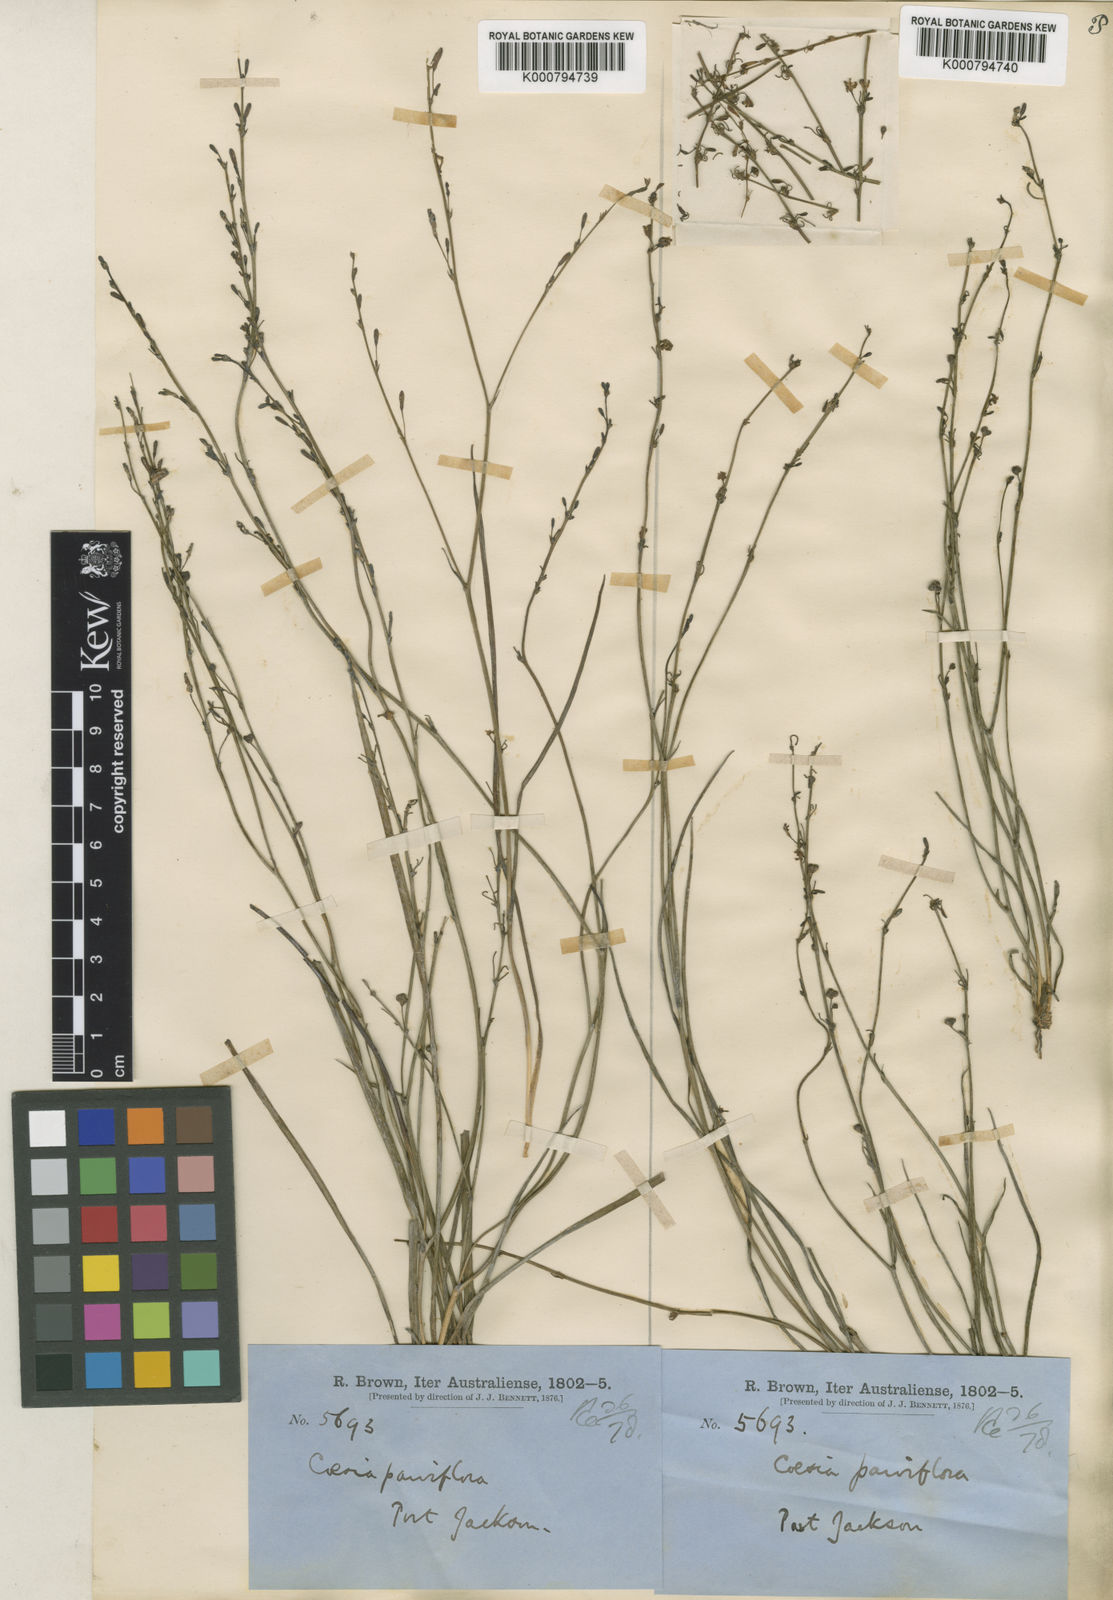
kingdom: Plantae
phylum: Tracheophyta
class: Liliopsida
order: Asparagales
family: Asphodelaceae
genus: Caesia
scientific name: Caesia parviflora
